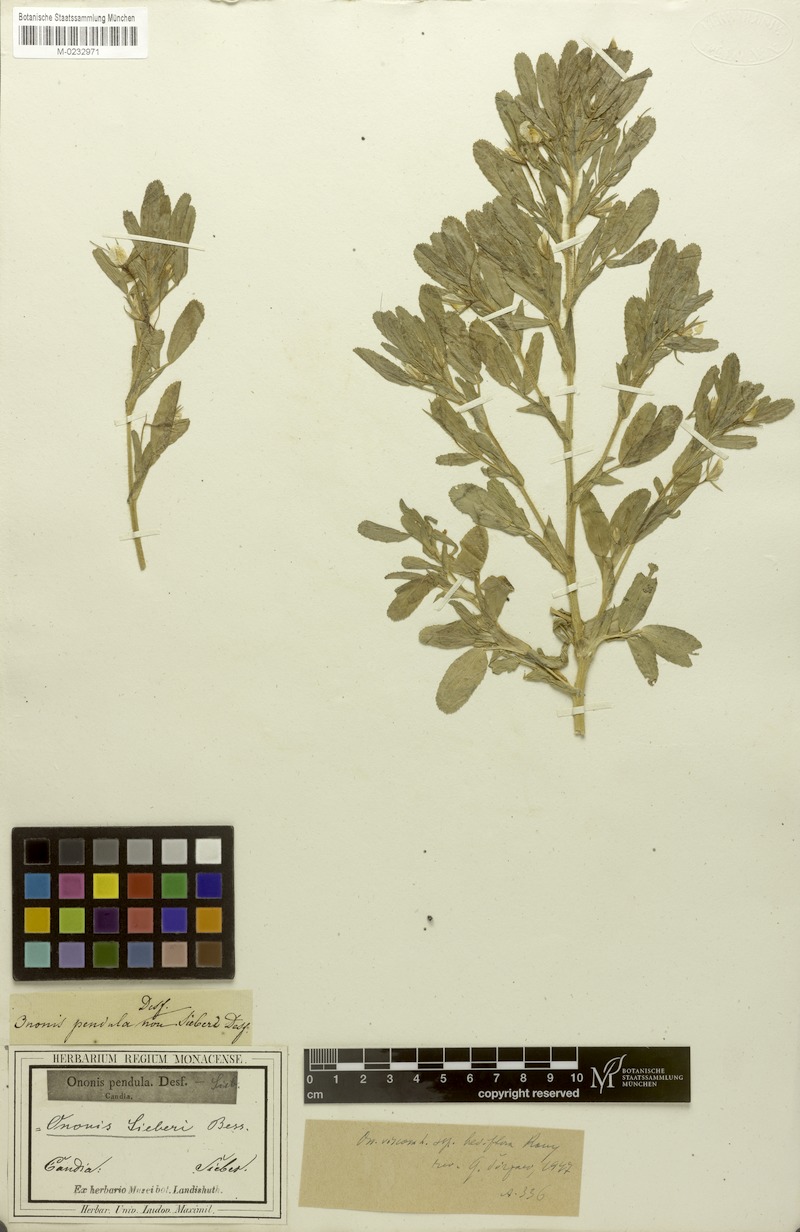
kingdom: Plantae
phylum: Tracheophyta
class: Magnoliopsida
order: Fabales
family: Fabaceae
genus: Ononis
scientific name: Ononis viscosa
